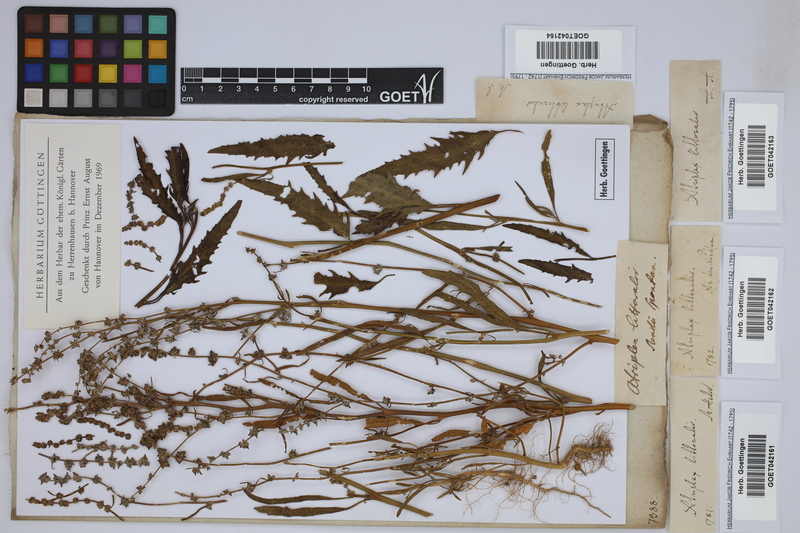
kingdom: Plantae
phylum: Tracheophyta
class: Magnoliopsida
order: Caryophyllales
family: Amaranthaceae
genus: Atriplex
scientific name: Atriplex littoralis
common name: Grass-leaved orache
